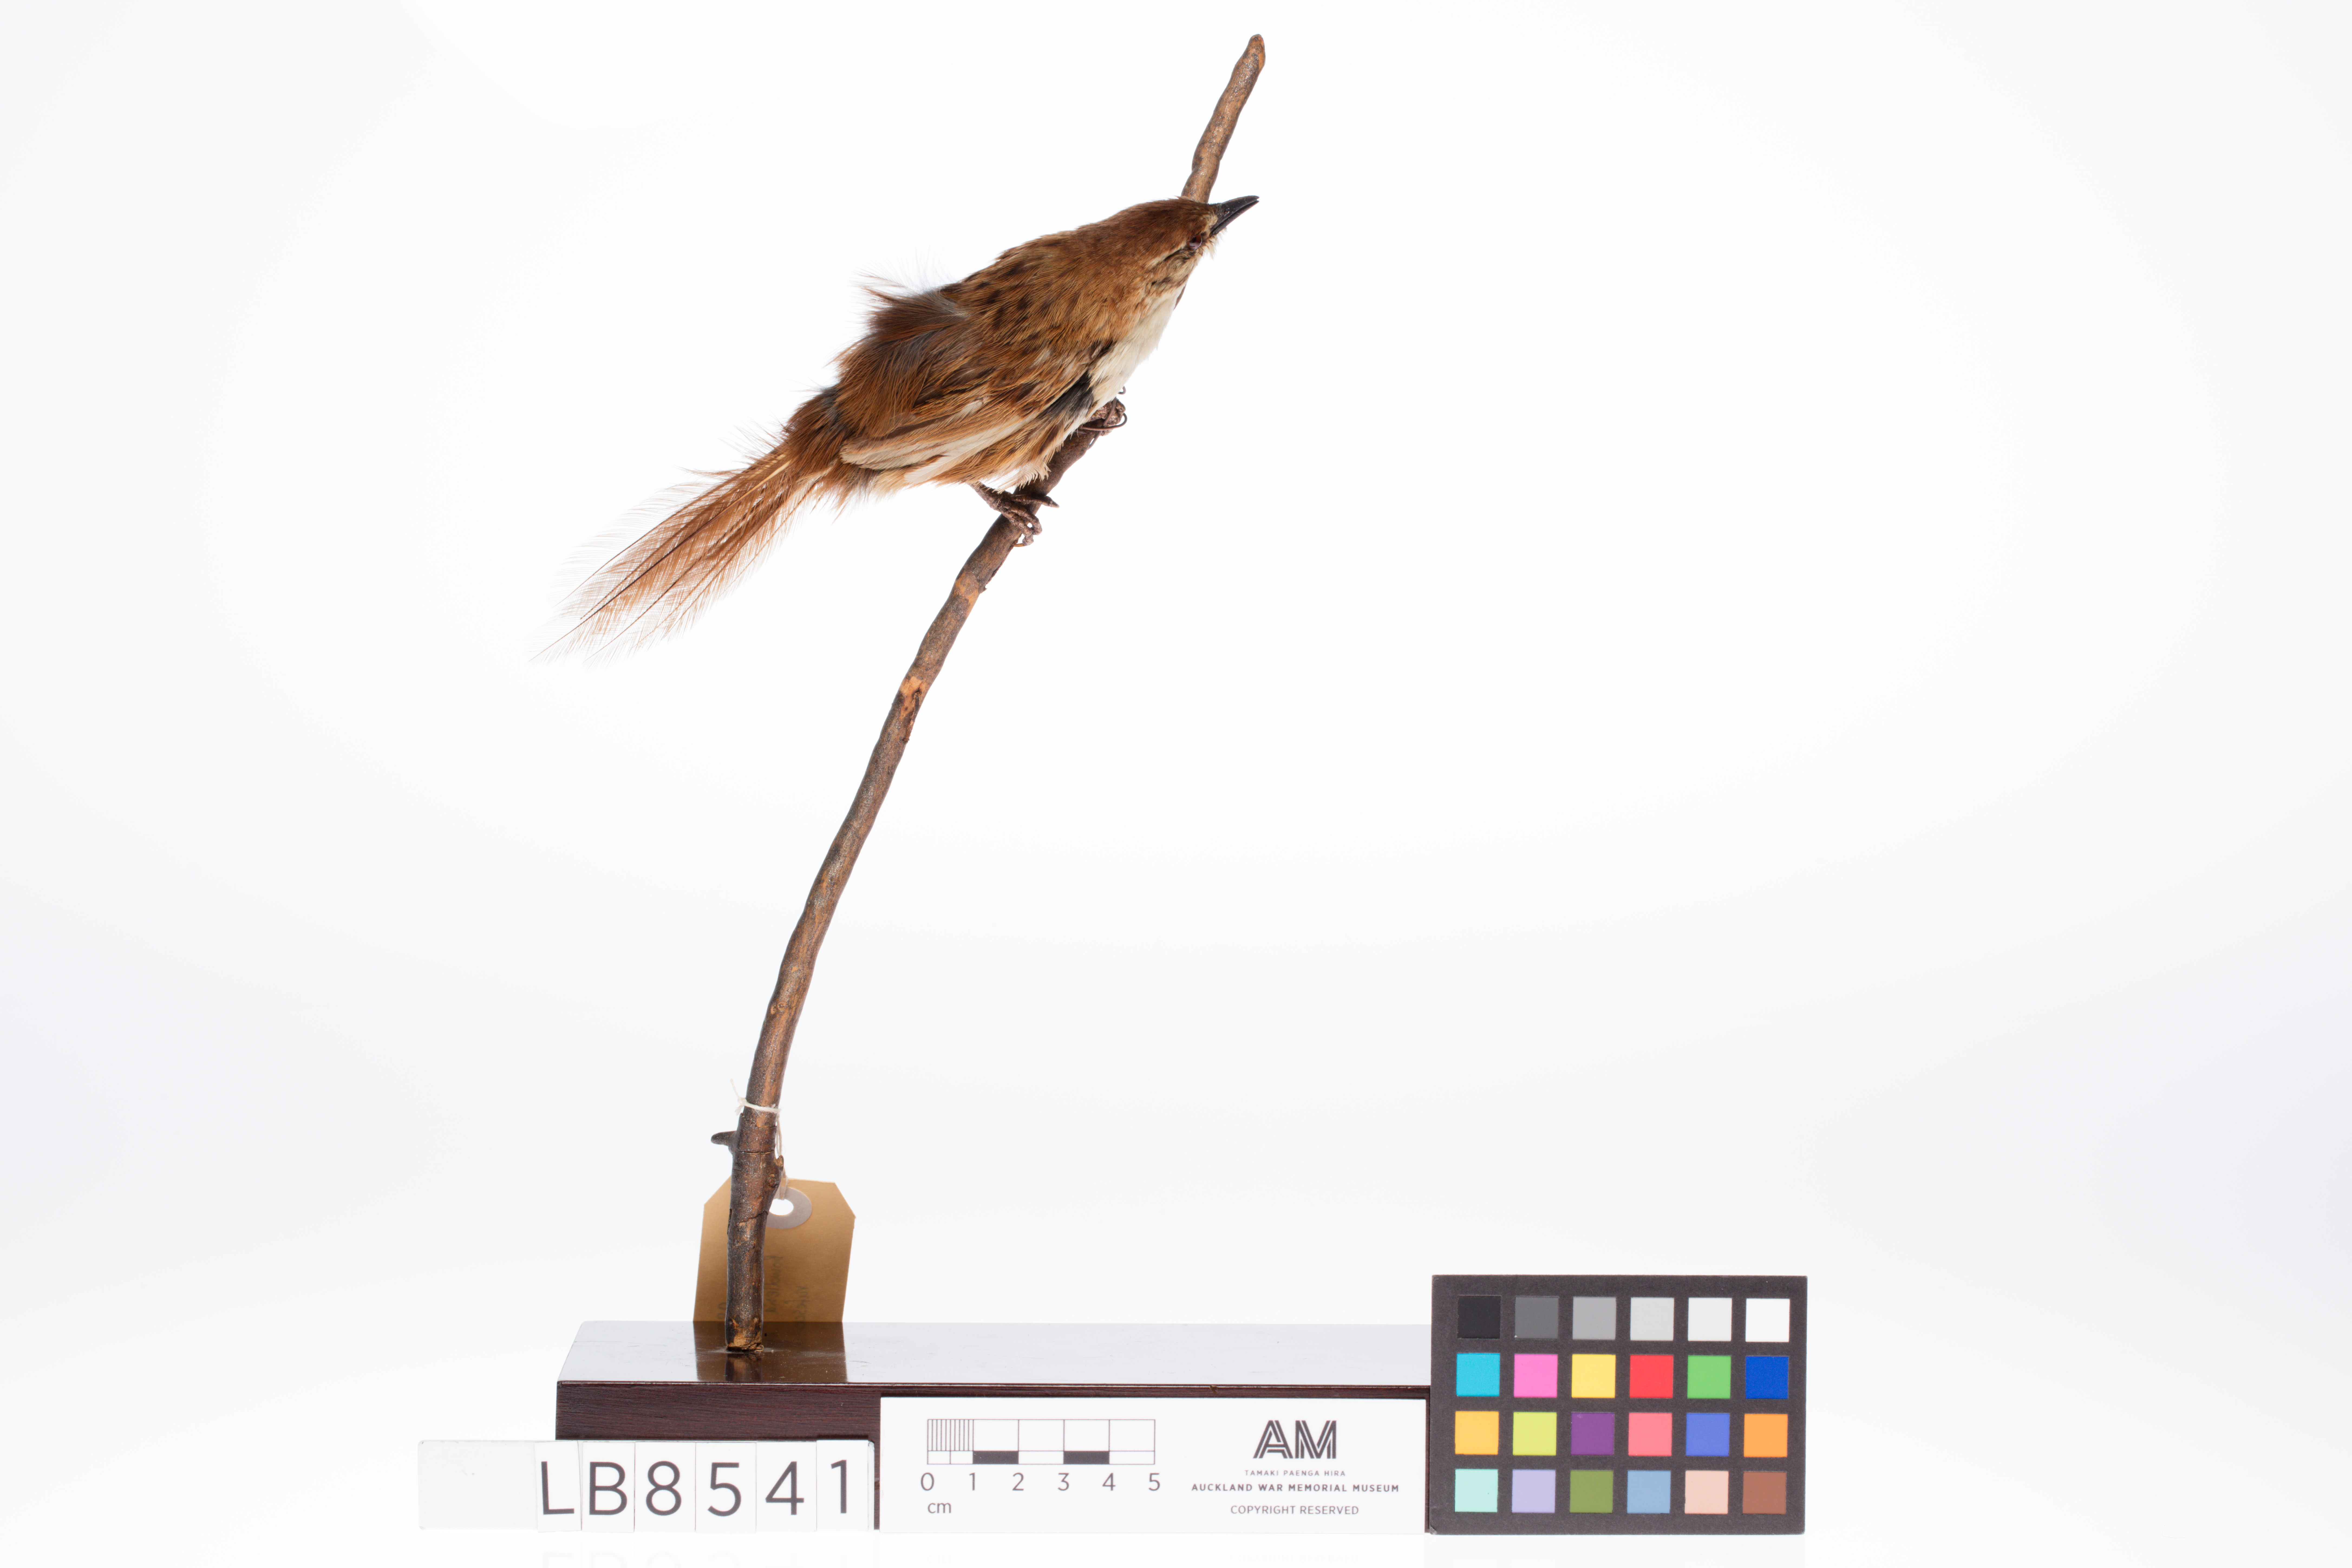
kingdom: Animalia
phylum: Chordata
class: Aves
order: Passeriformes
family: Locustellidae
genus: Megalurus
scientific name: Megalurus rufescens
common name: Chatham fernbird
